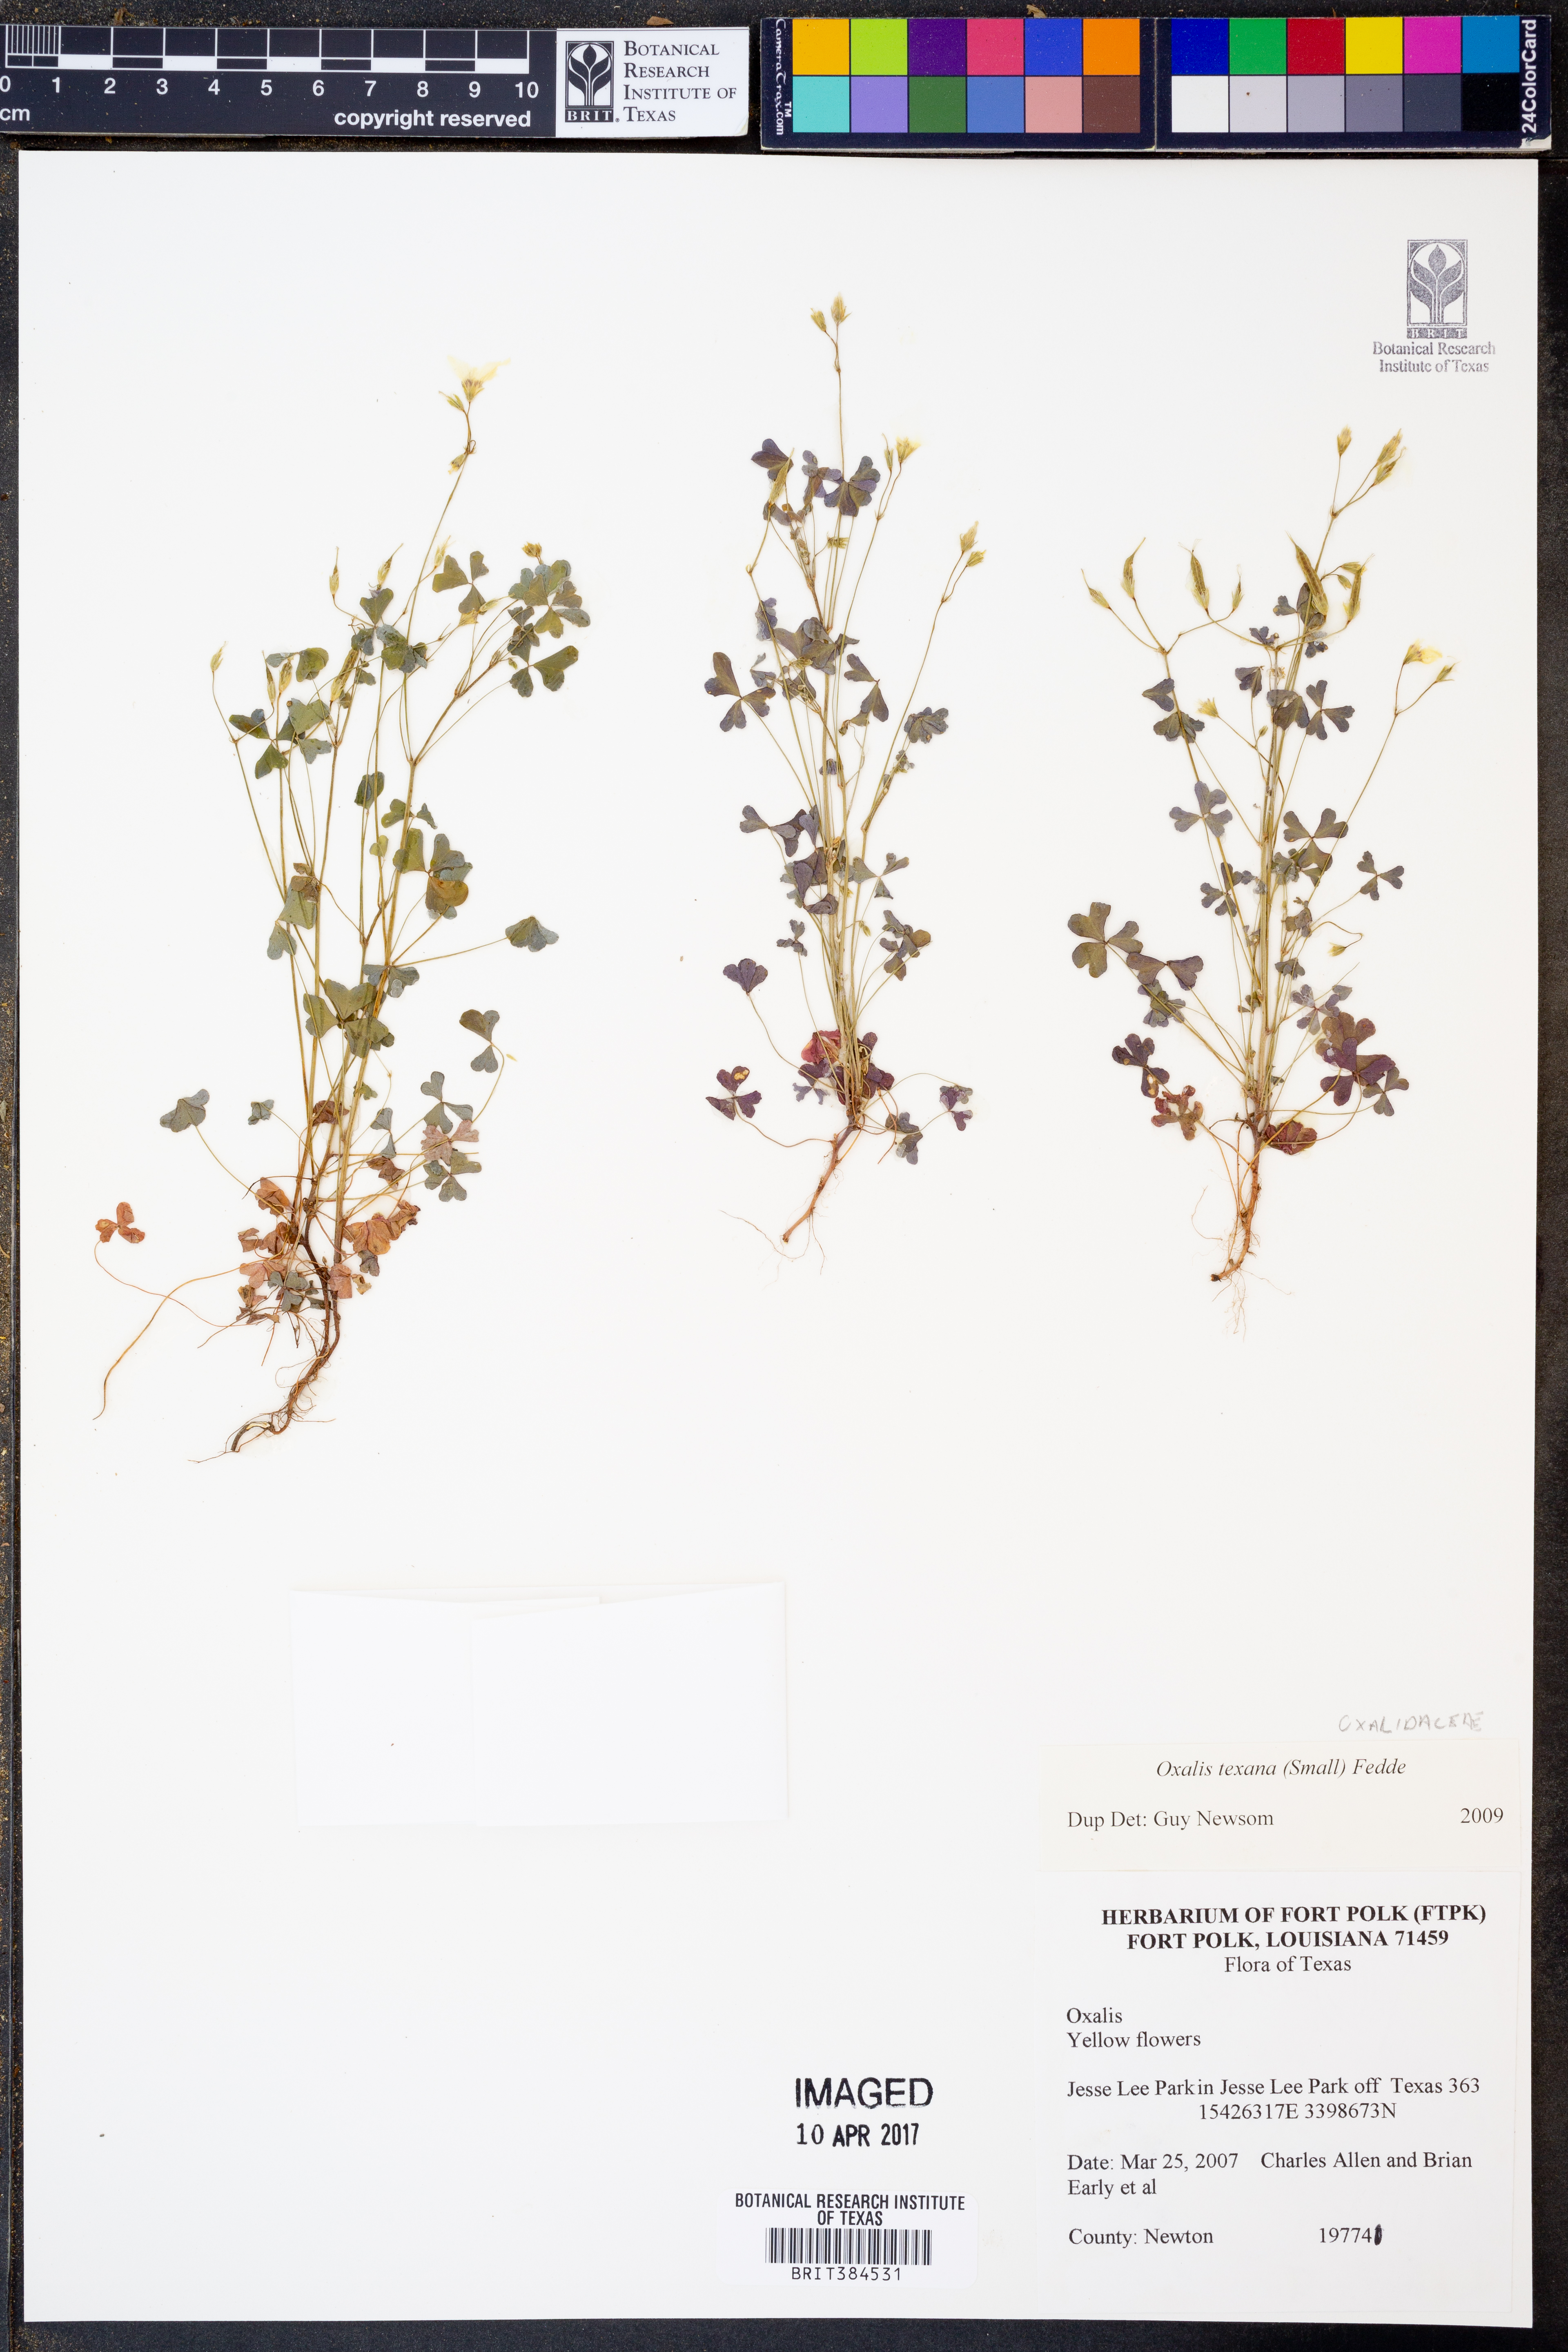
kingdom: Plantae
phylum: Tracheophyta
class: Magnoliopsida
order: Oxalidales
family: Oxalidaceae
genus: Oxalis
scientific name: Oxalis texana
